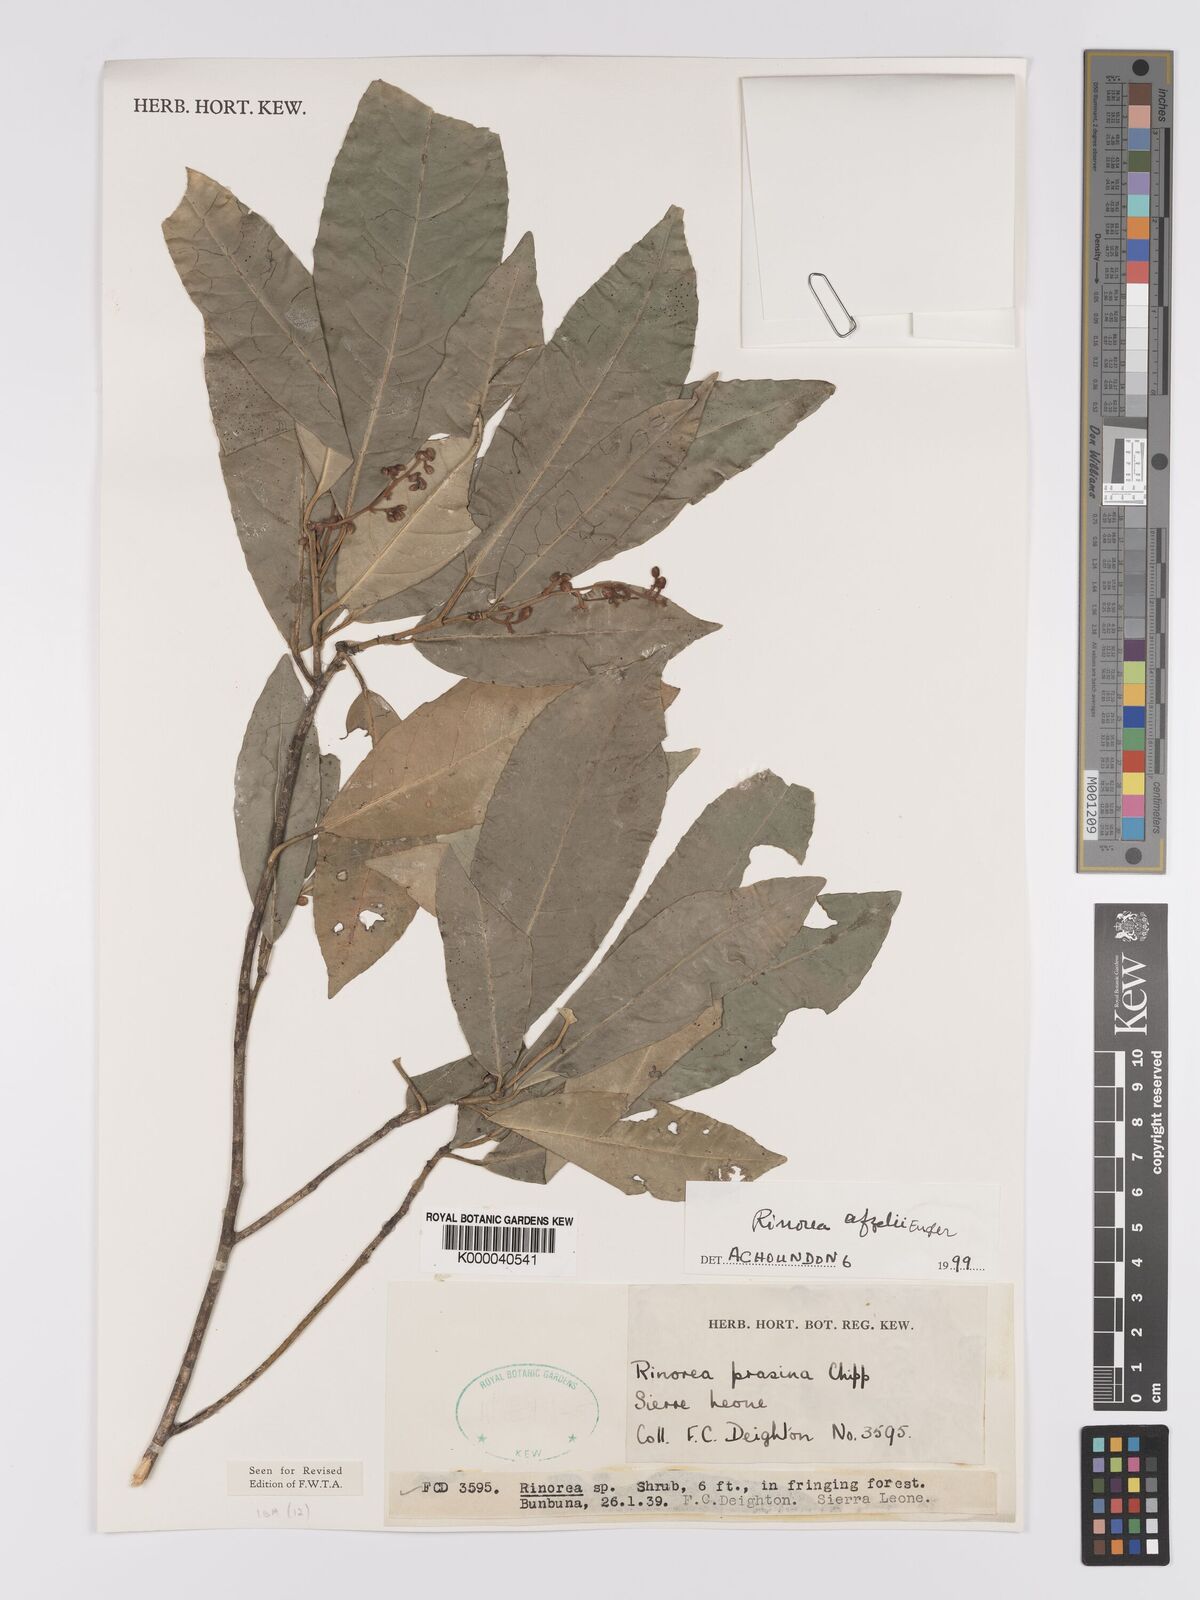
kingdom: Plantae
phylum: Tracheophyta
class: Magnoliopsida
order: Malpighiales
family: Violaceae
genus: Rinorea
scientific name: Rinorea afzelii
